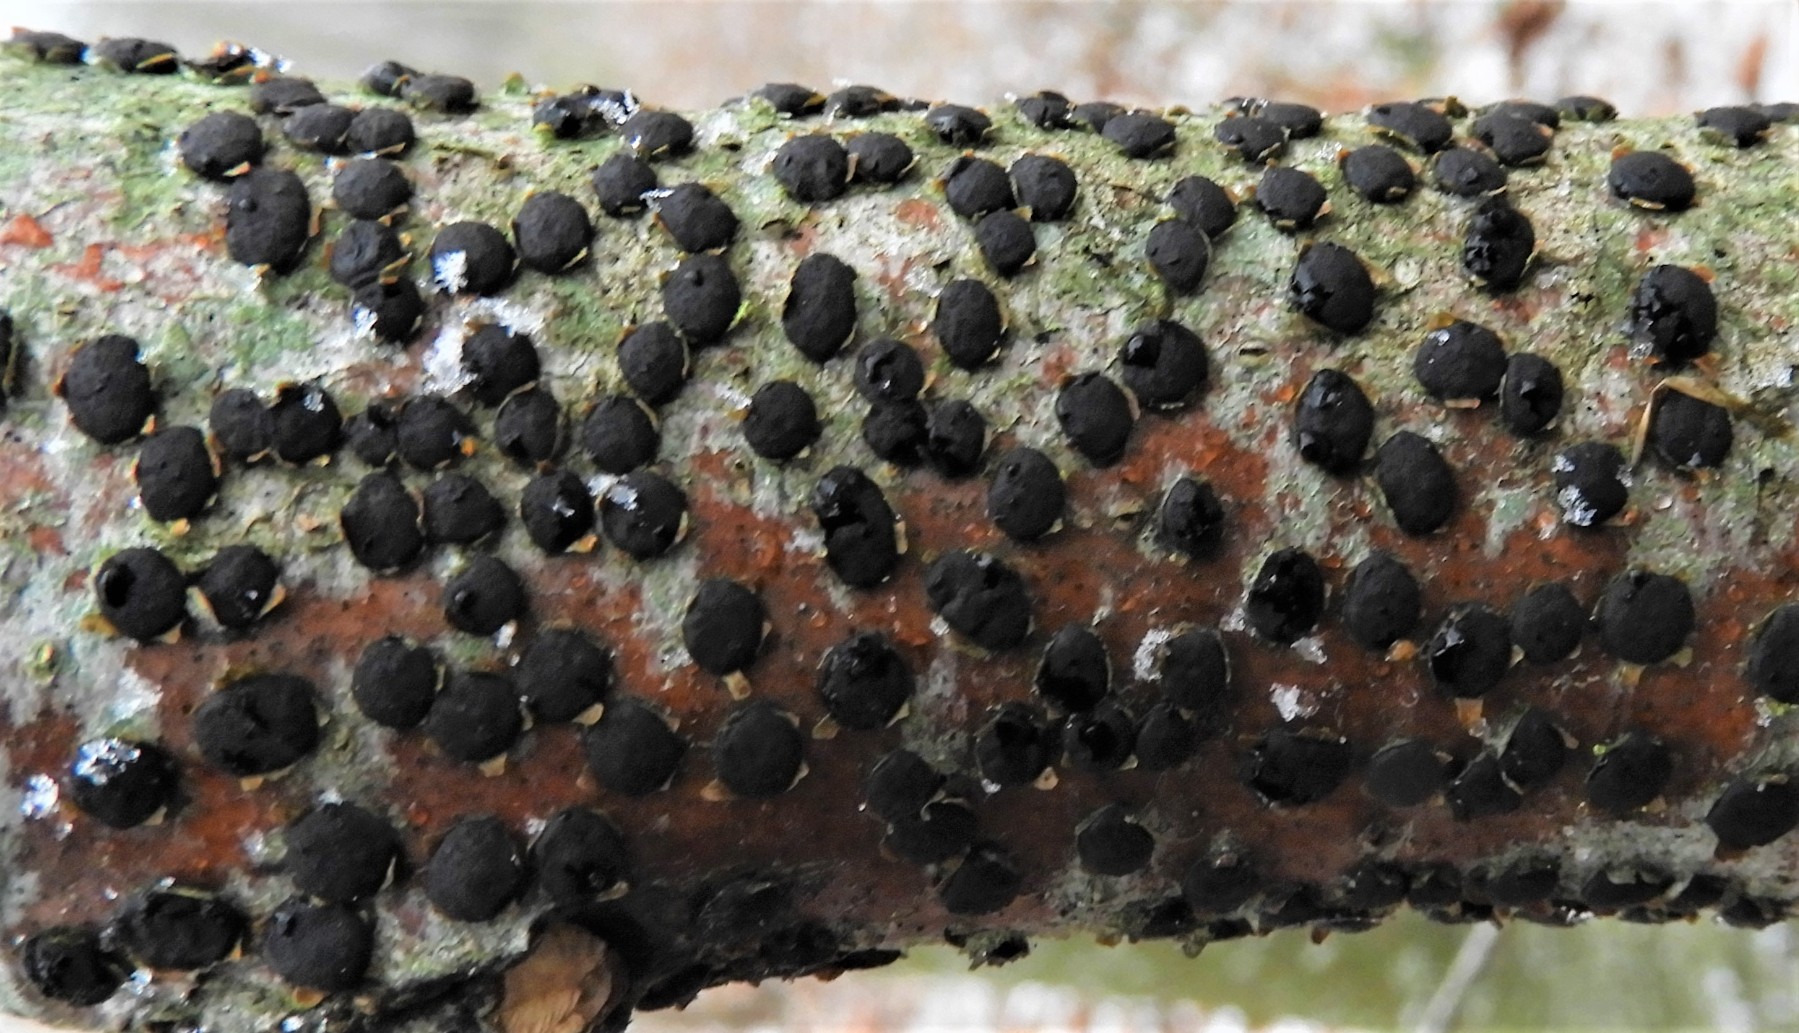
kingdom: Fungi
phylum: Ascomycota
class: Sordariomycetes
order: Xylariales
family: Diatrypaceae
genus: Diatrype
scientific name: Diatrype disciformis
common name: kant-kulskorpe
